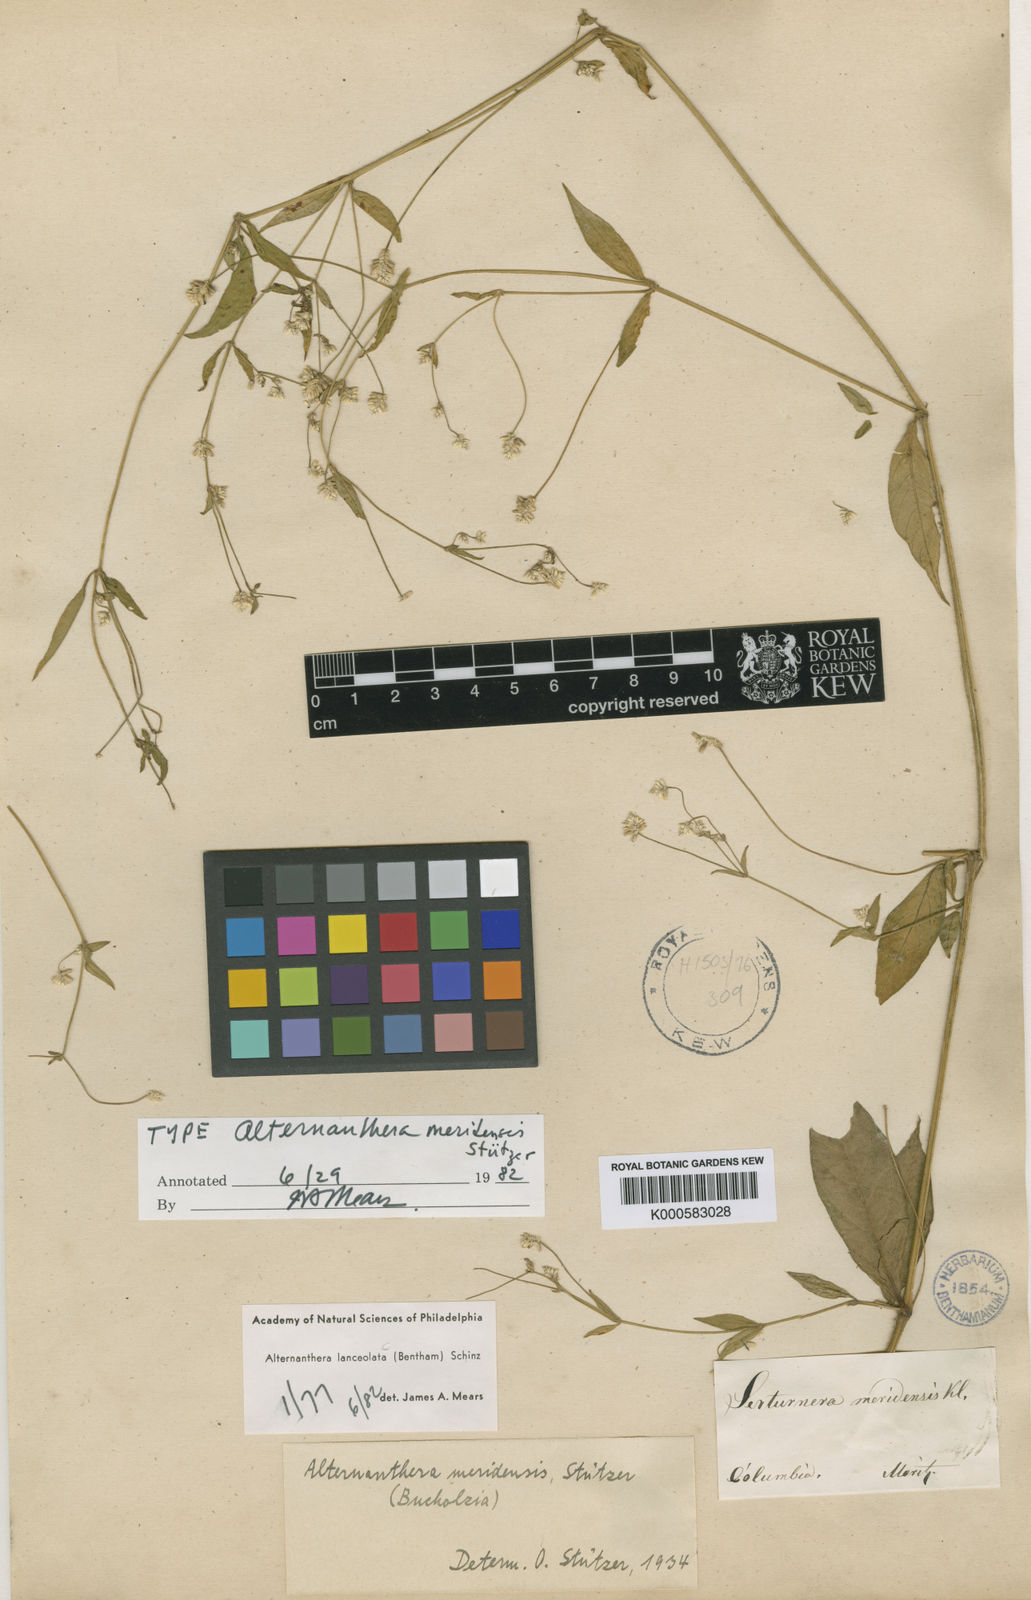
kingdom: Plantae
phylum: Tracheophyta
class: Magnoliopsida
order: Caryophyllales
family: Amaranthaceae
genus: Alternanthera
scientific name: Alternanthera lanceolata
